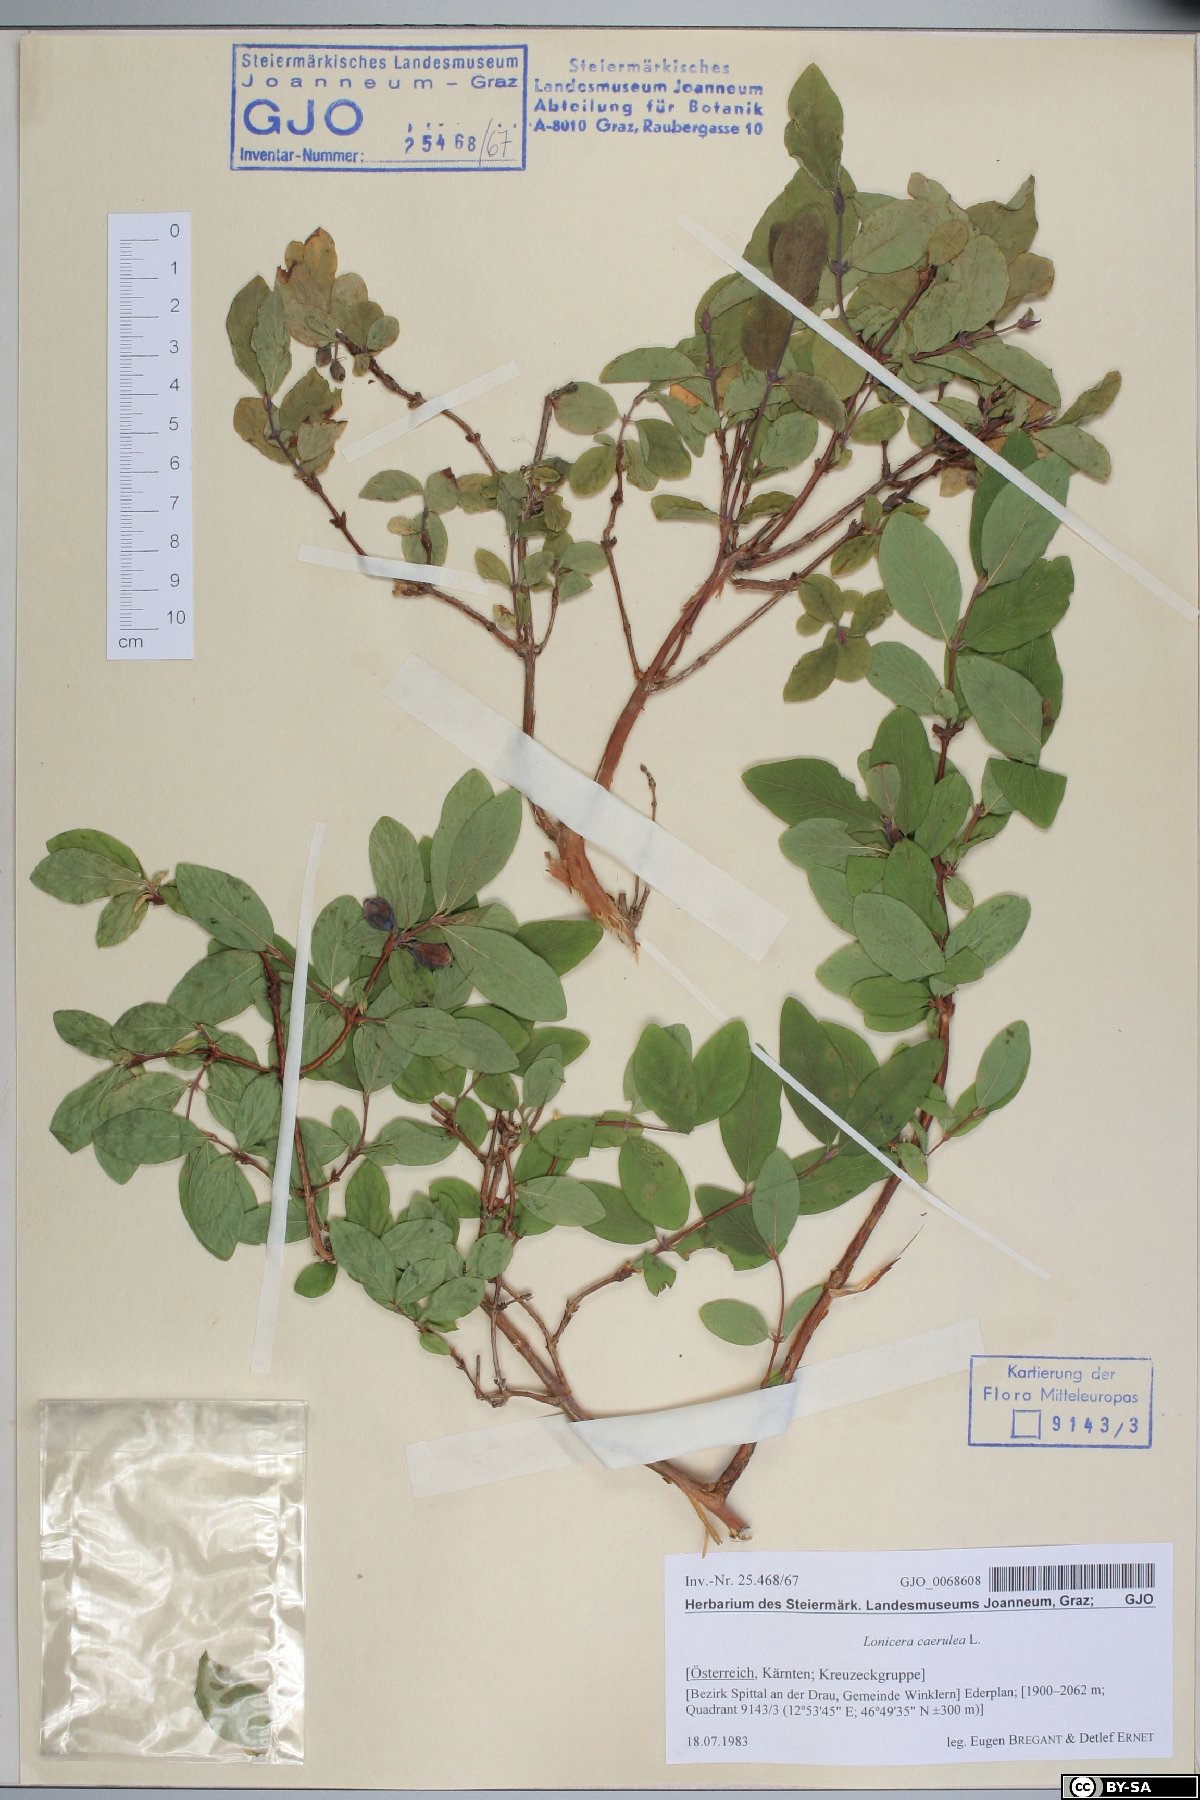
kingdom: Plantae
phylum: Tracheophyta
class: Magnoliopsida
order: Dipsacales
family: Caprifoliaceae
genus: Lonicera
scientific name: Lonicera caerulea
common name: Blue honeysuckle
